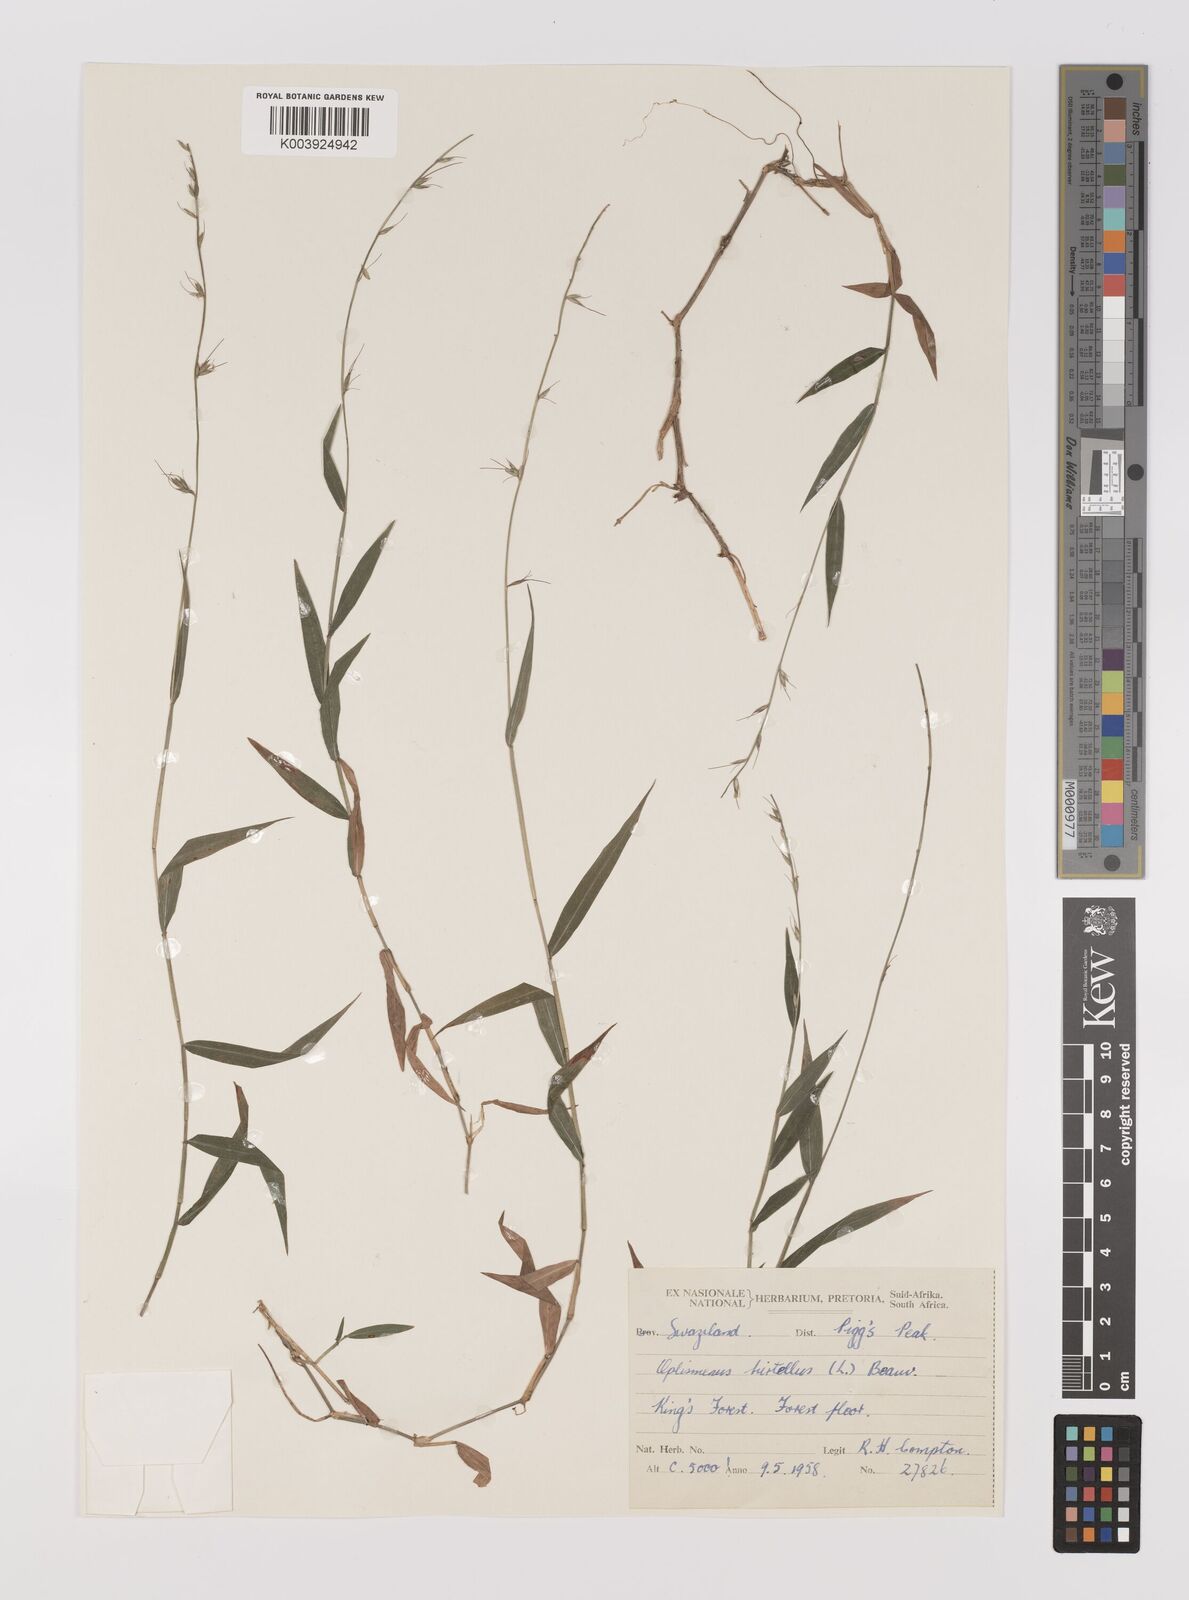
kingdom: Plantae
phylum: Tracheophyta
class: Liliopsida
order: Poales
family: Poaceae
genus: Oplismenus
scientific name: Oplismenus undulatifolius
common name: Wavyleaf basketgrass
